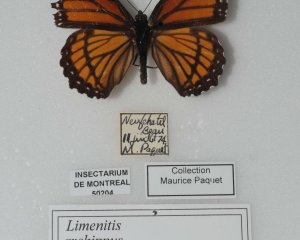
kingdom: Animalia
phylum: Arthropoda
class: Insecta
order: Lepidoptera
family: Nymphalidae
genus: Limenitis
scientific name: Limenitis archippus
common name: Viceroy
